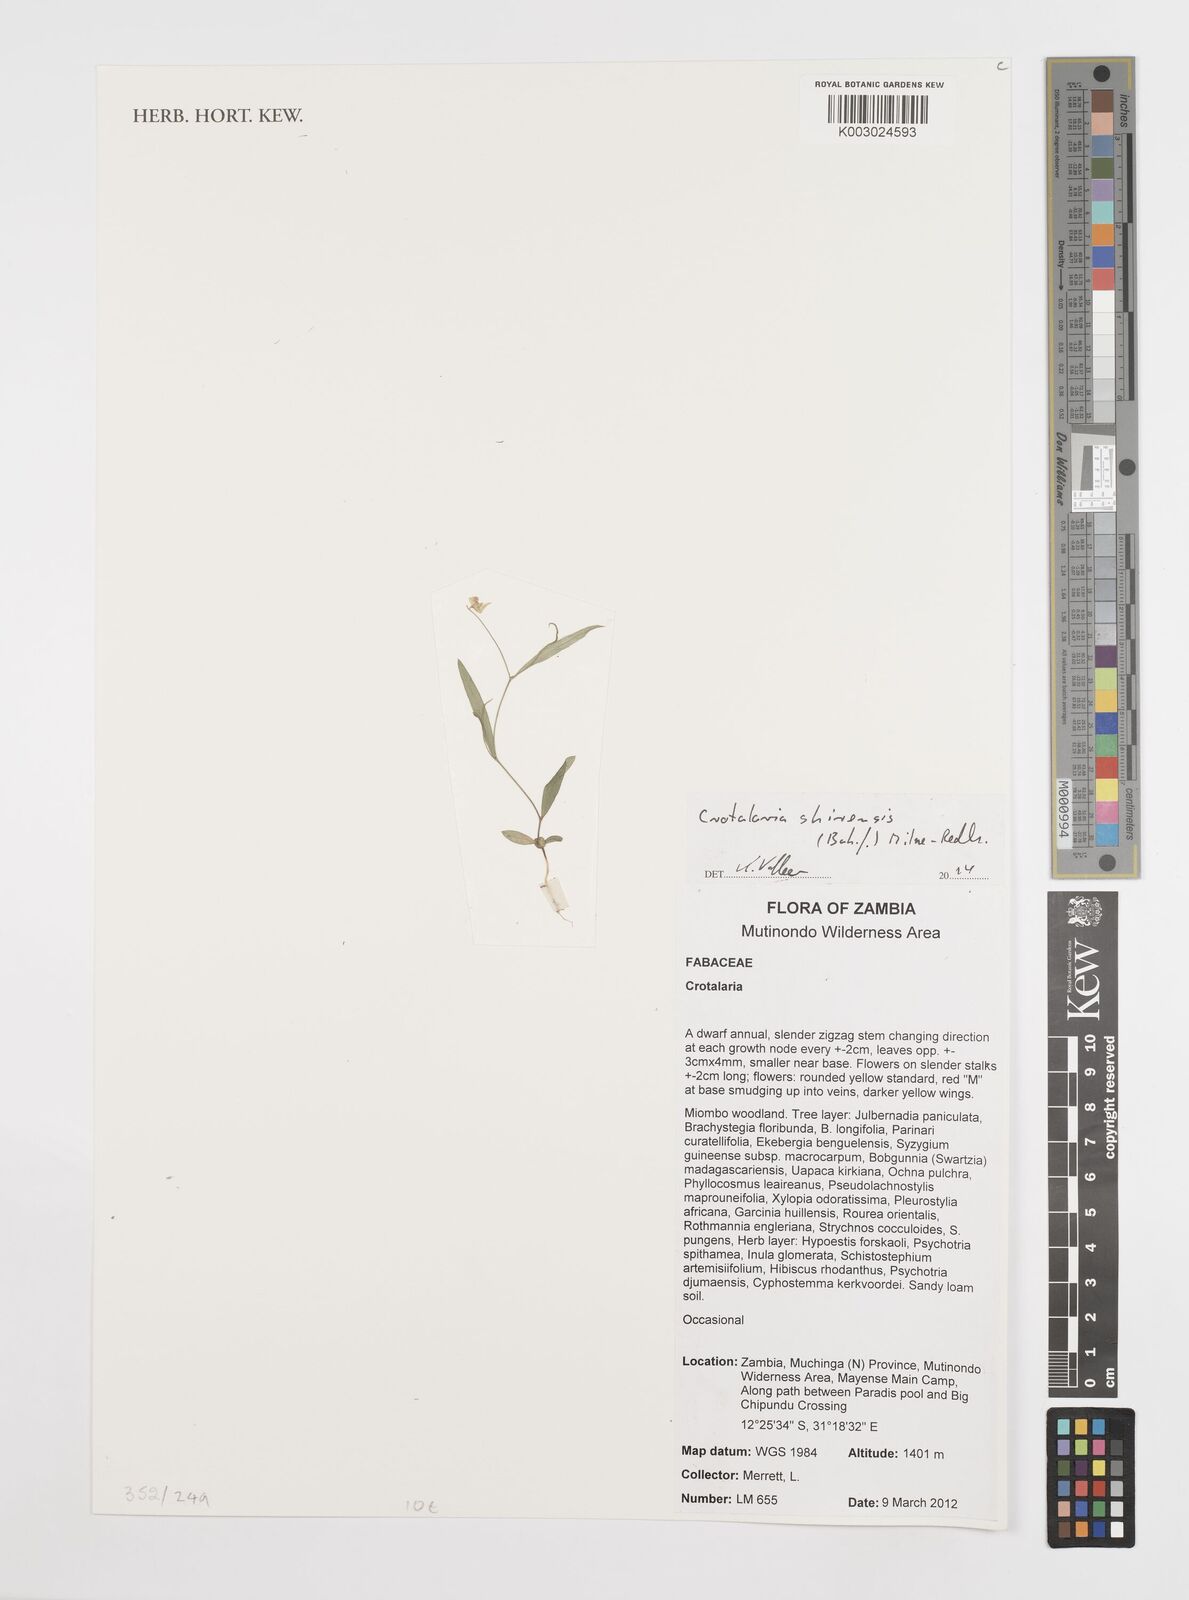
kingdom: Plantae
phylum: Tracheophyta
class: Magnoliopsida
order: Fabales
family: Fabaceae
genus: Crotalaria
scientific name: Crotalaria shirensis
